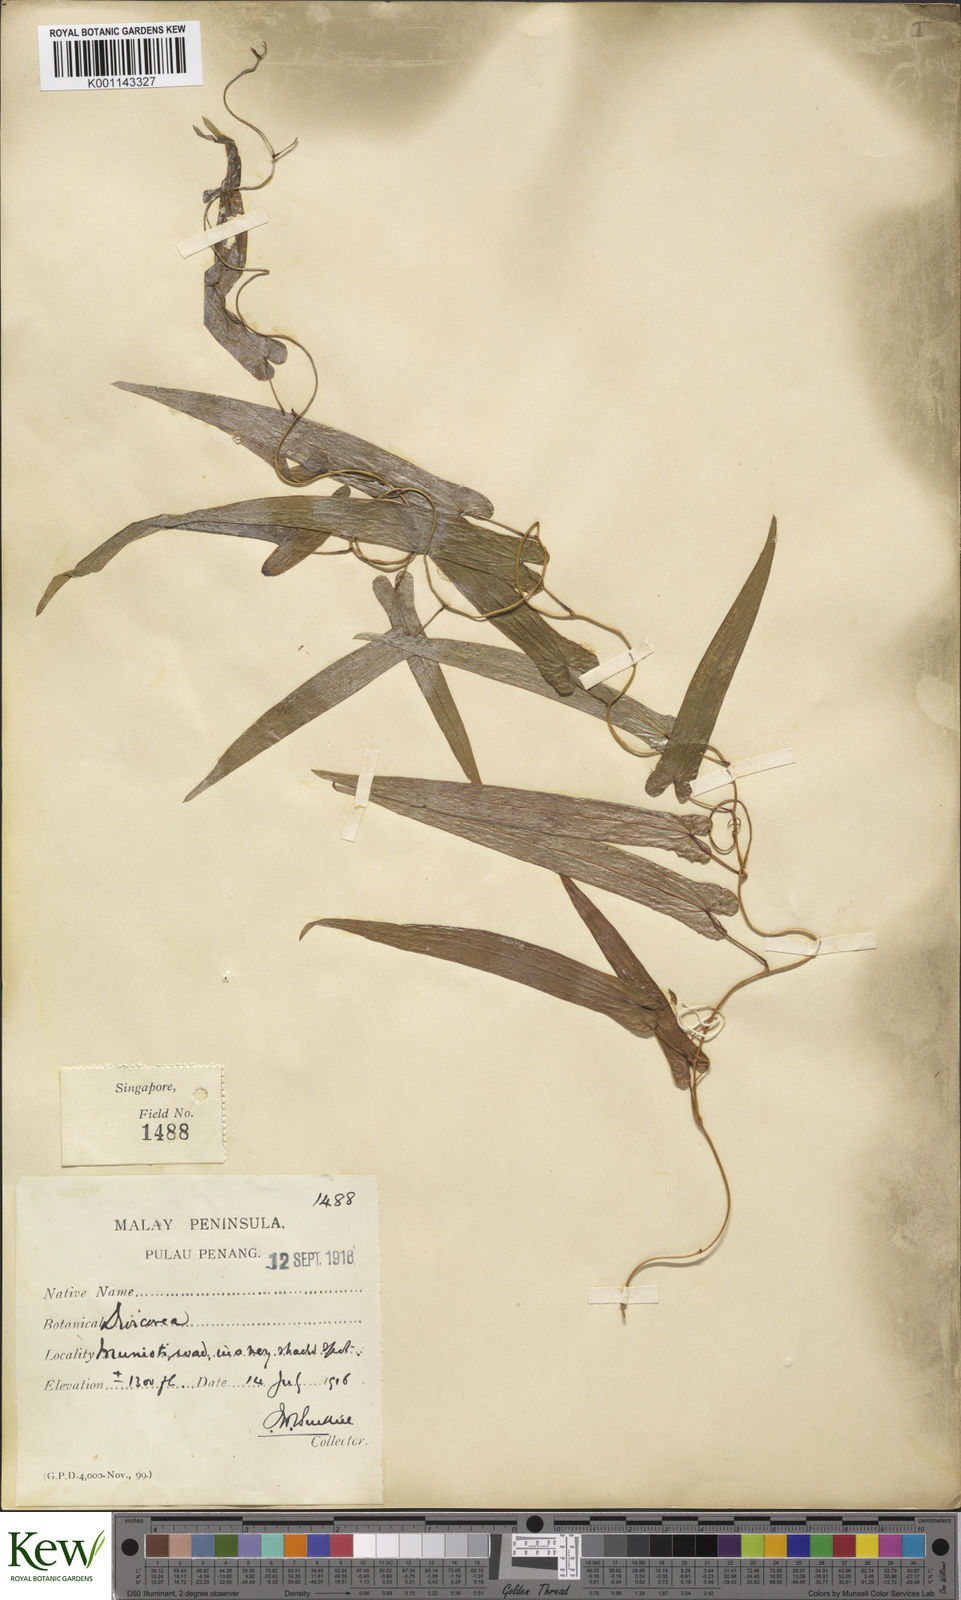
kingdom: Plantae
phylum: Tracheophyta
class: Liliopsida
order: Dioscoreales
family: Dioscoreaceae
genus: Dioscorea
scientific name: Dioscorea kingii
